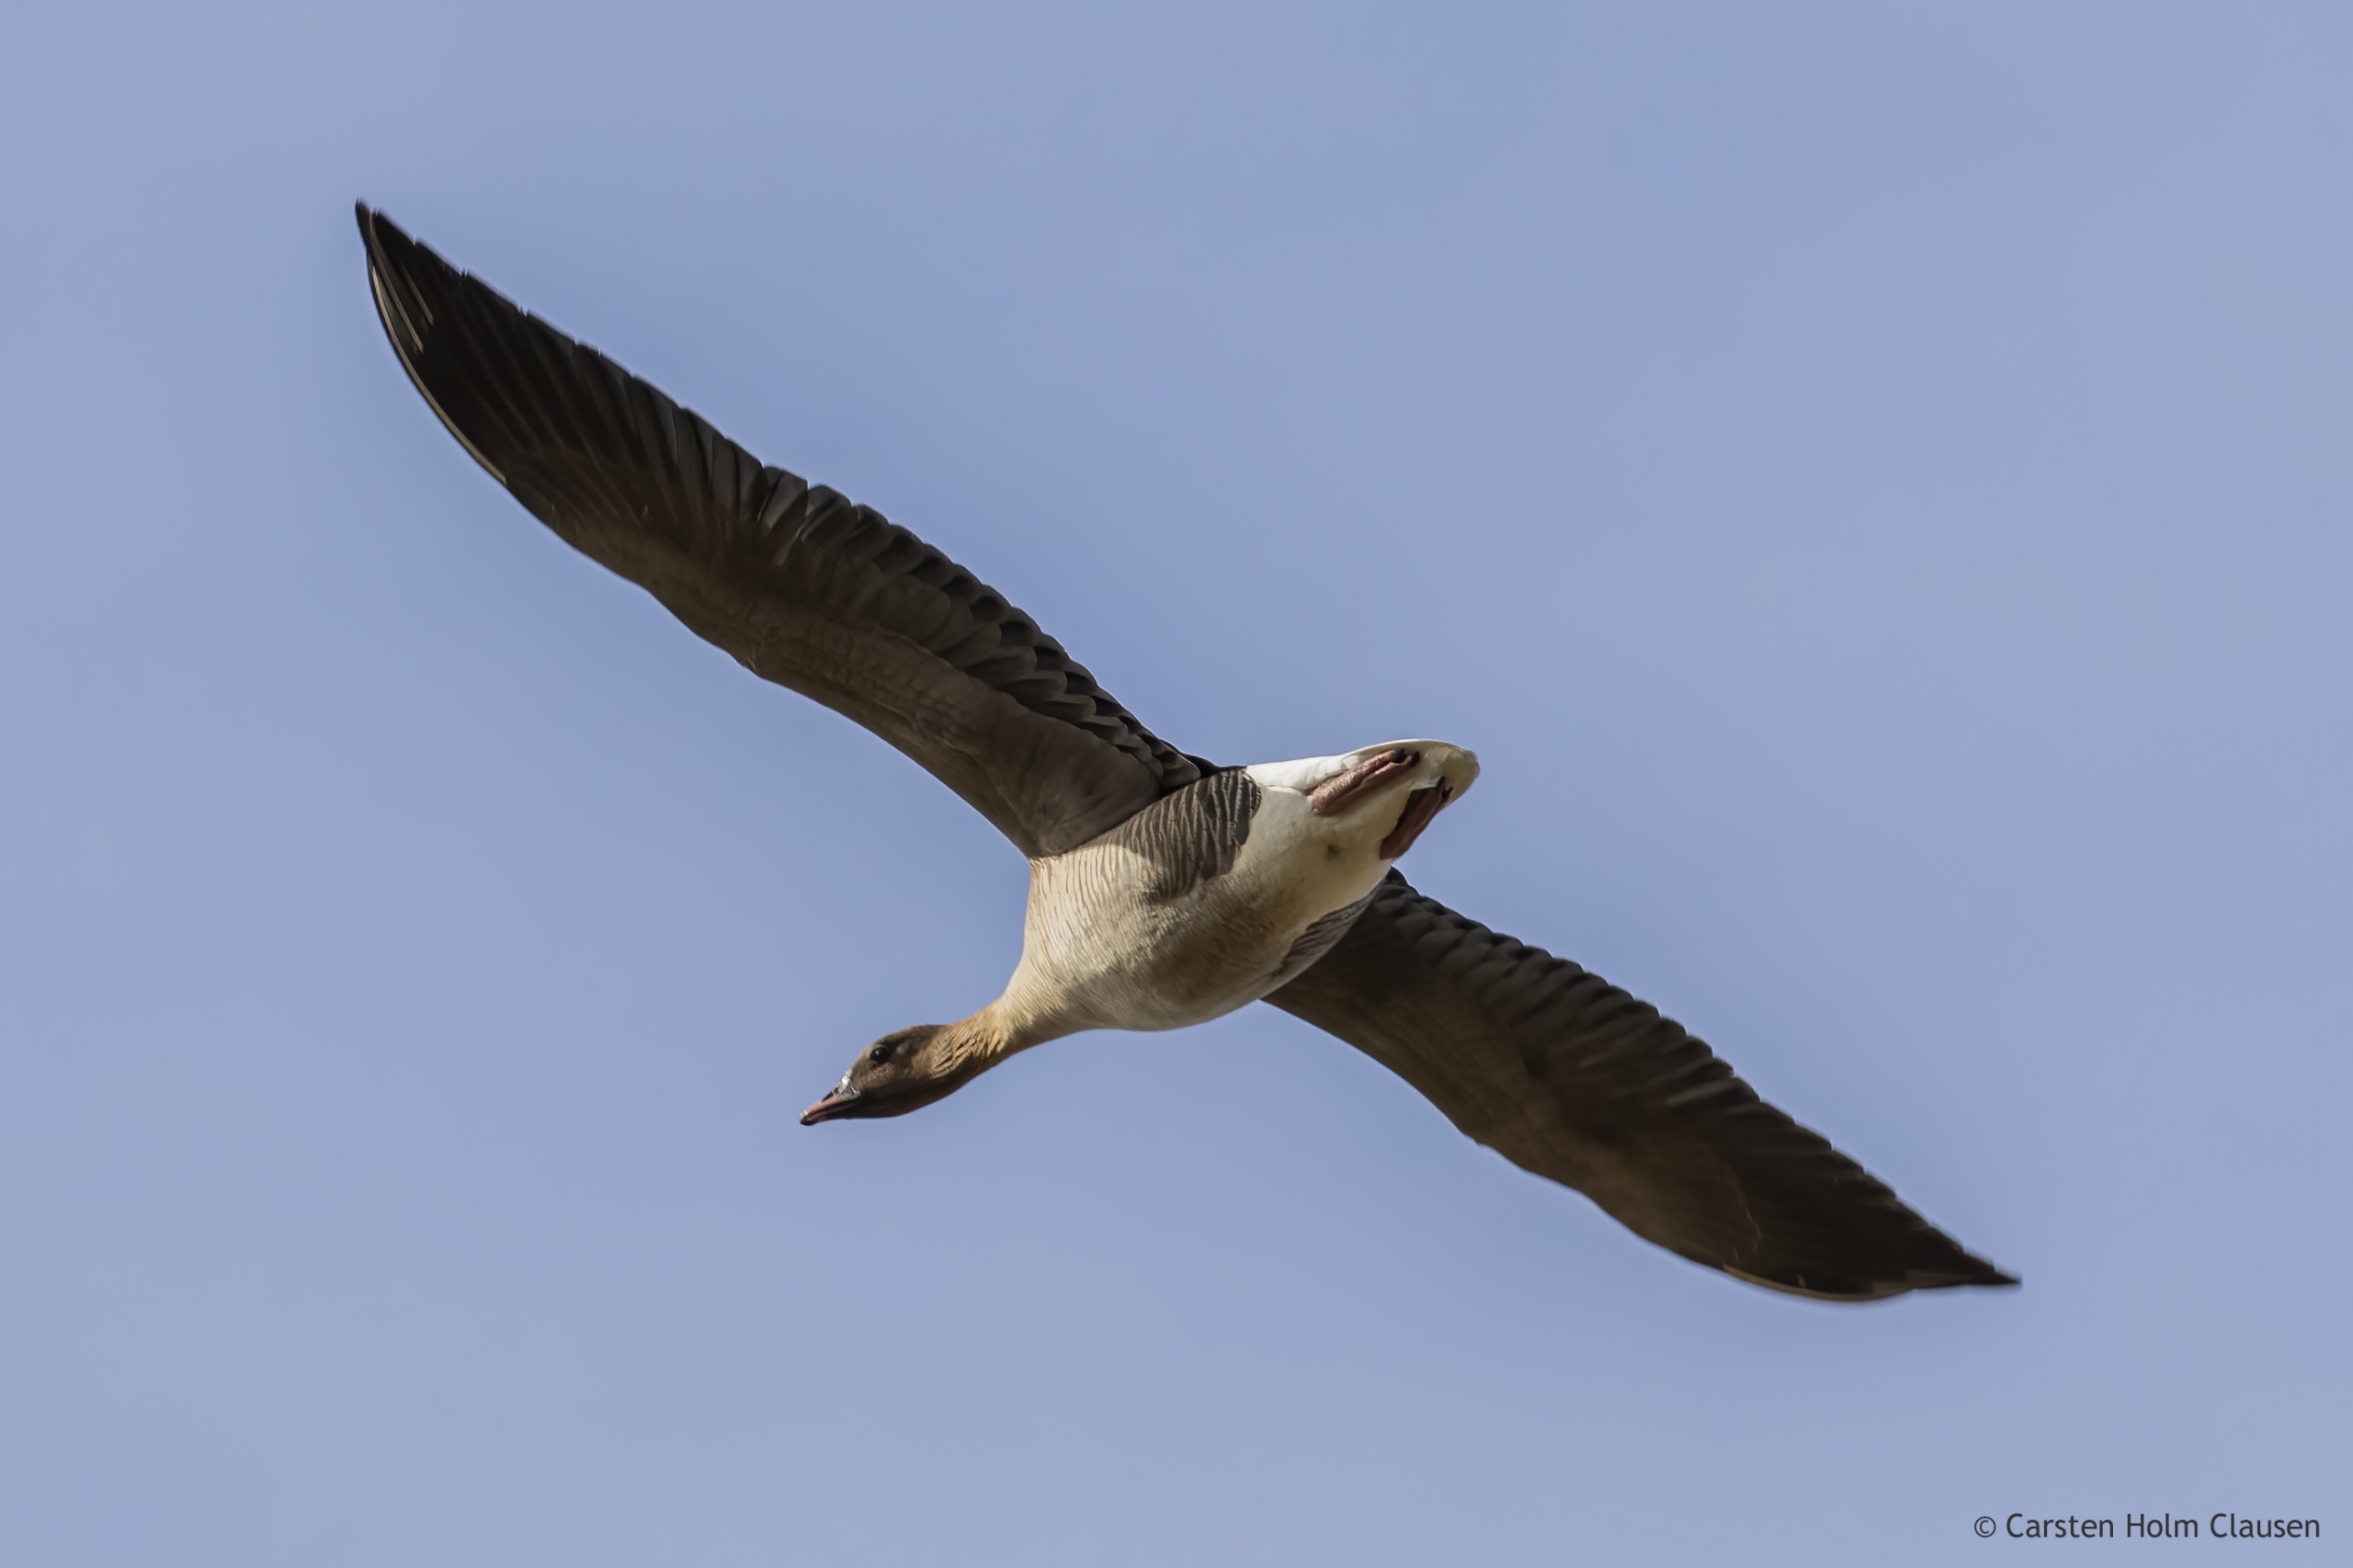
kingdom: Animalia
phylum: Chordata
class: Aves
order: Anseriformes
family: Anatidae
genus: Anser
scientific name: Anser brachyrhynchus
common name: Kortnæbbet gås
